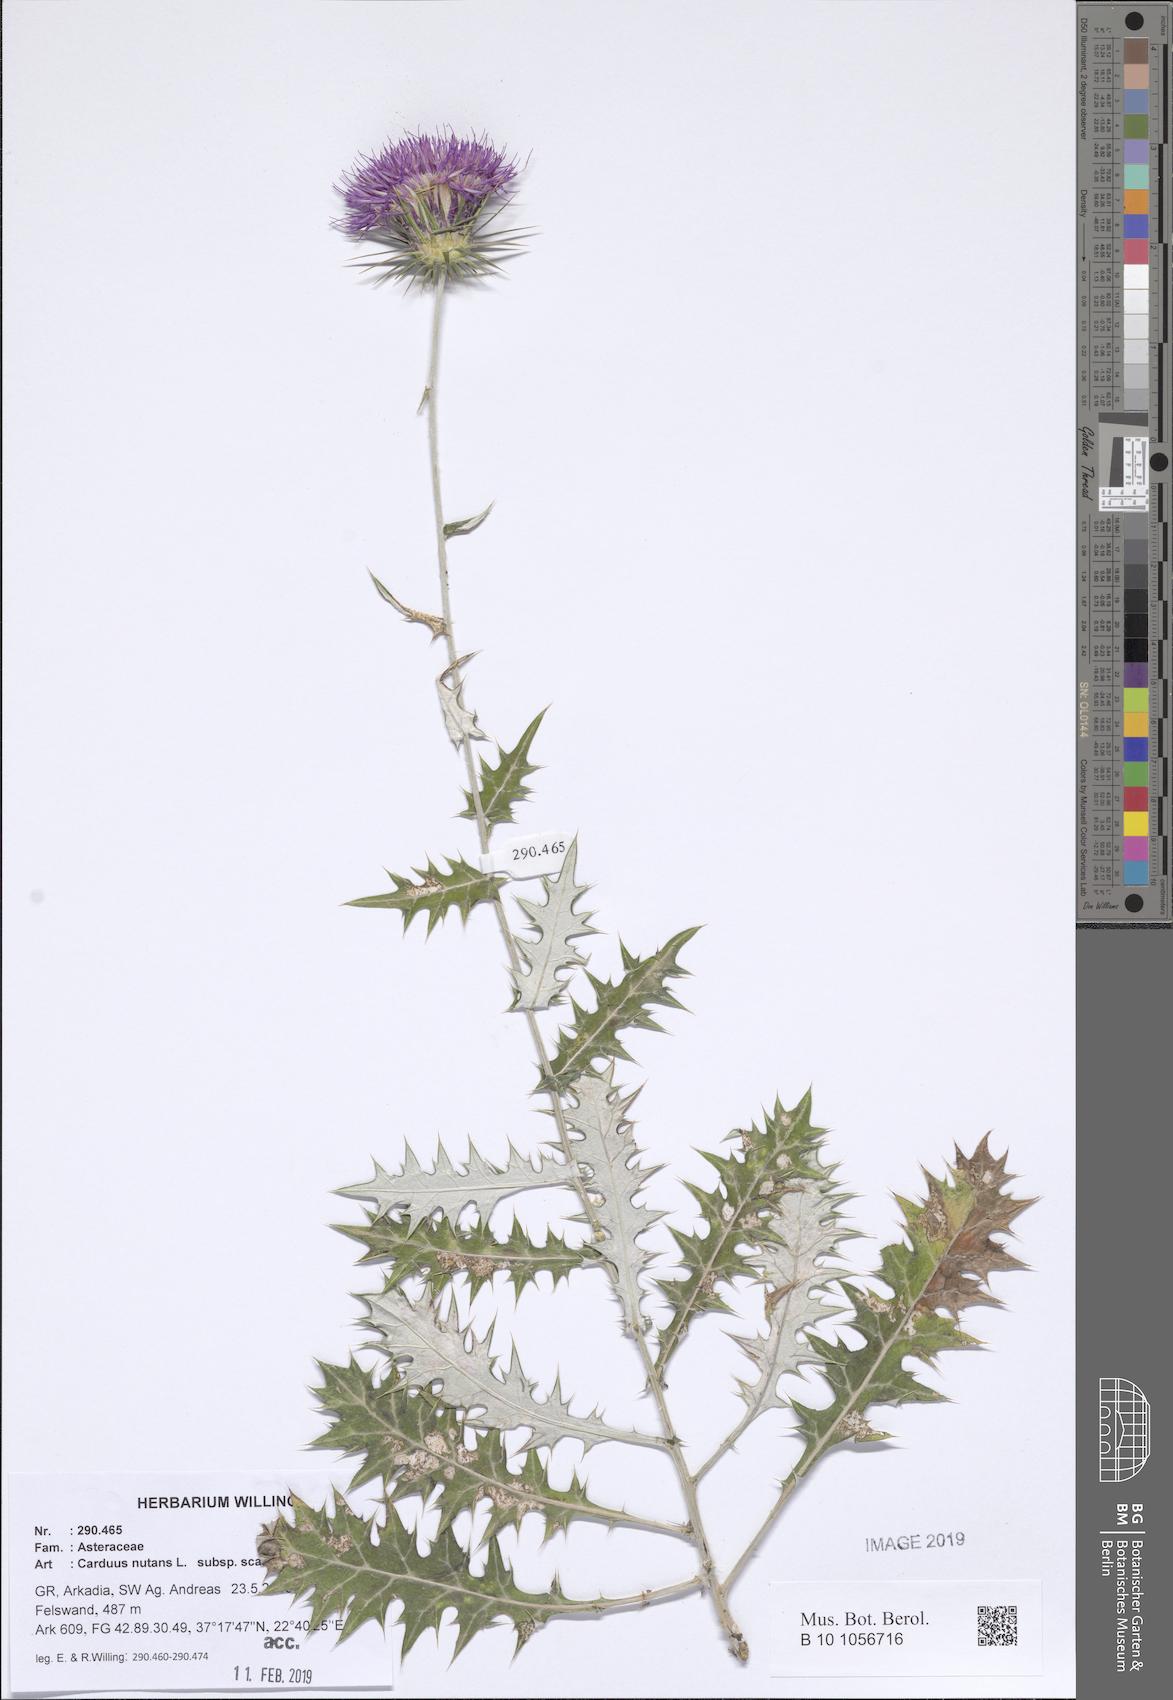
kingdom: Plantae
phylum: Tracheophyta
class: Magnoliopsida
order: Asterales
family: Asteraceae
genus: Carduus
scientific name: Carduus macrocephalus
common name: Giant thistle
